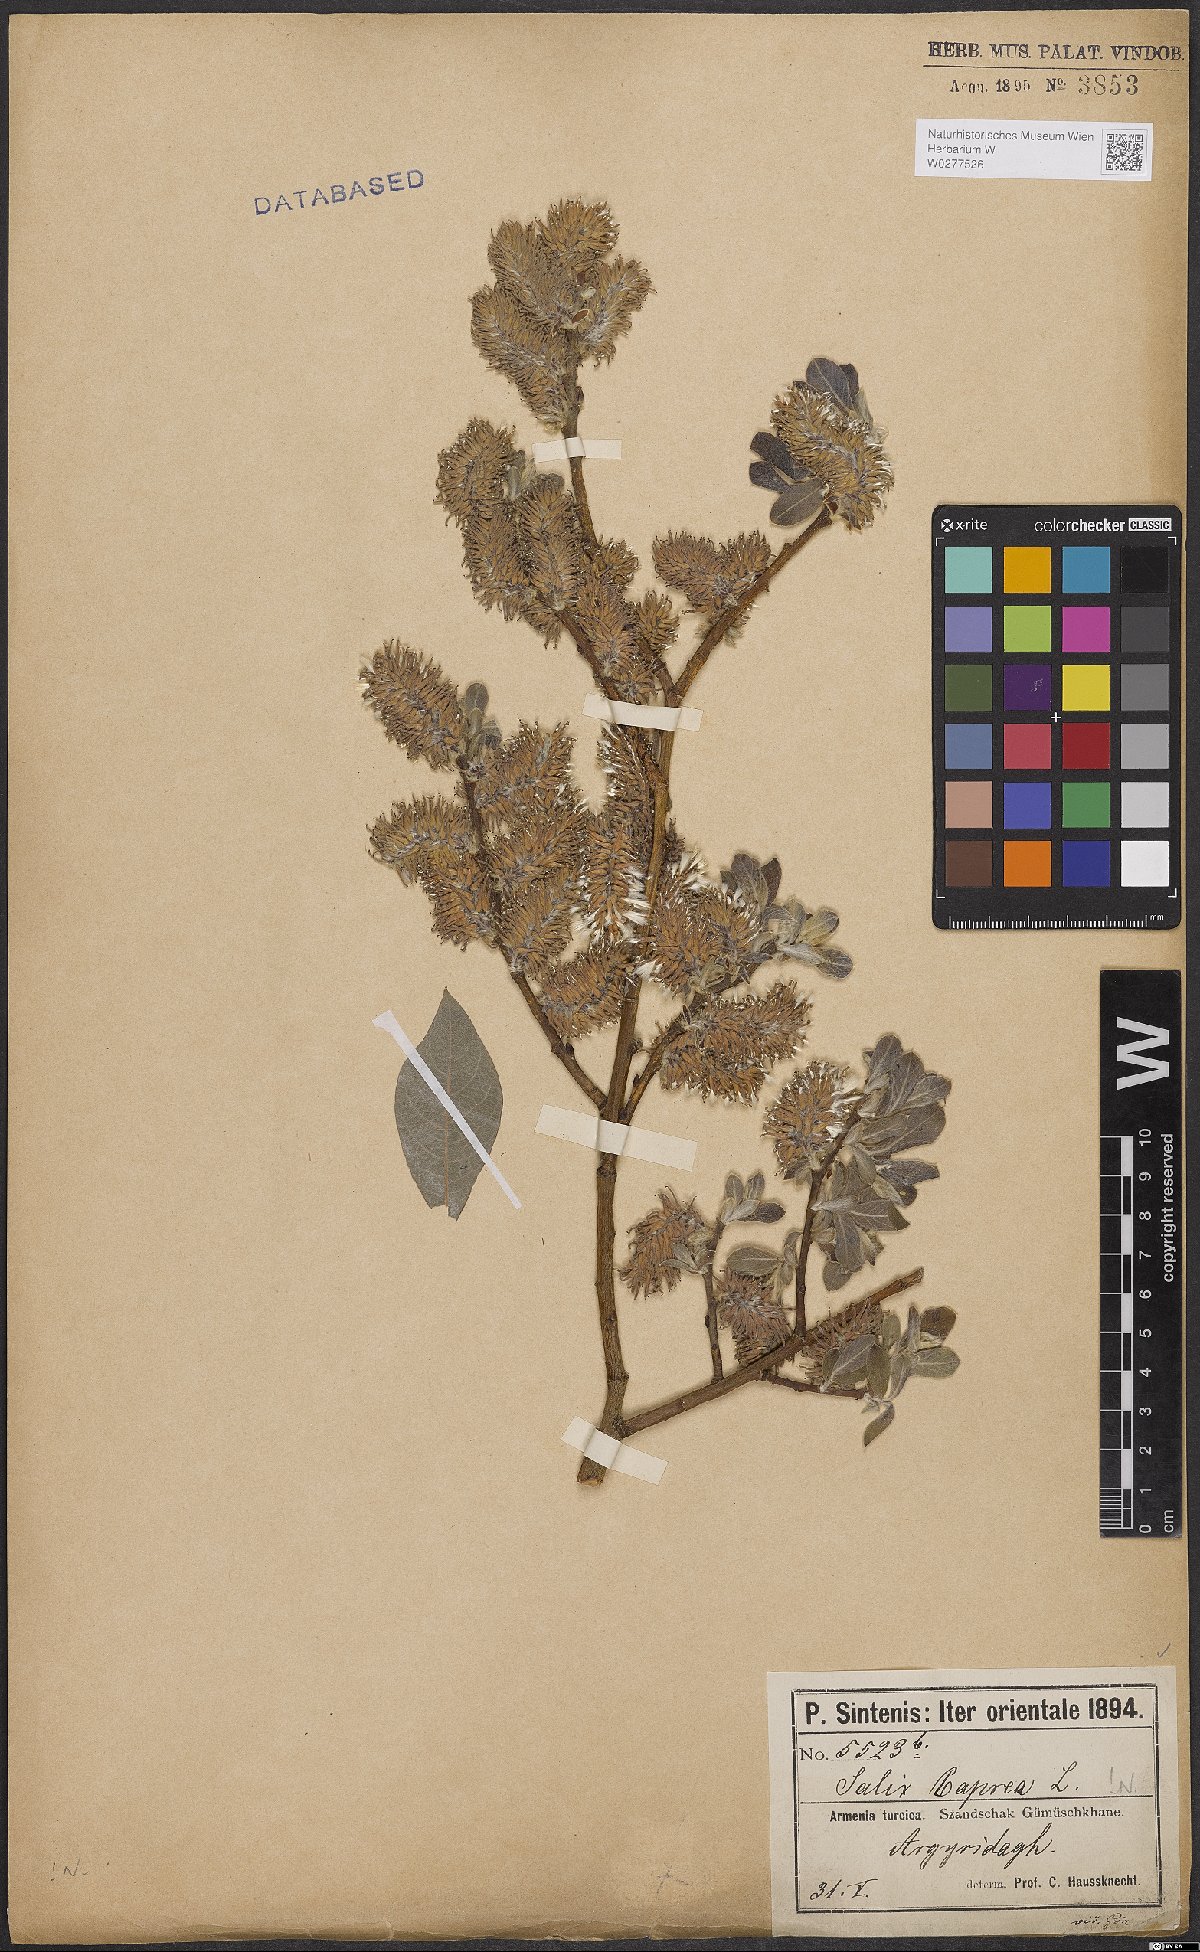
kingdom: Plantae
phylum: Tracheophyta
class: Magnoliopsida
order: Malpighiales
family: Salicaceae
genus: Salix
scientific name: Salix caprea
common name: Goat willow
